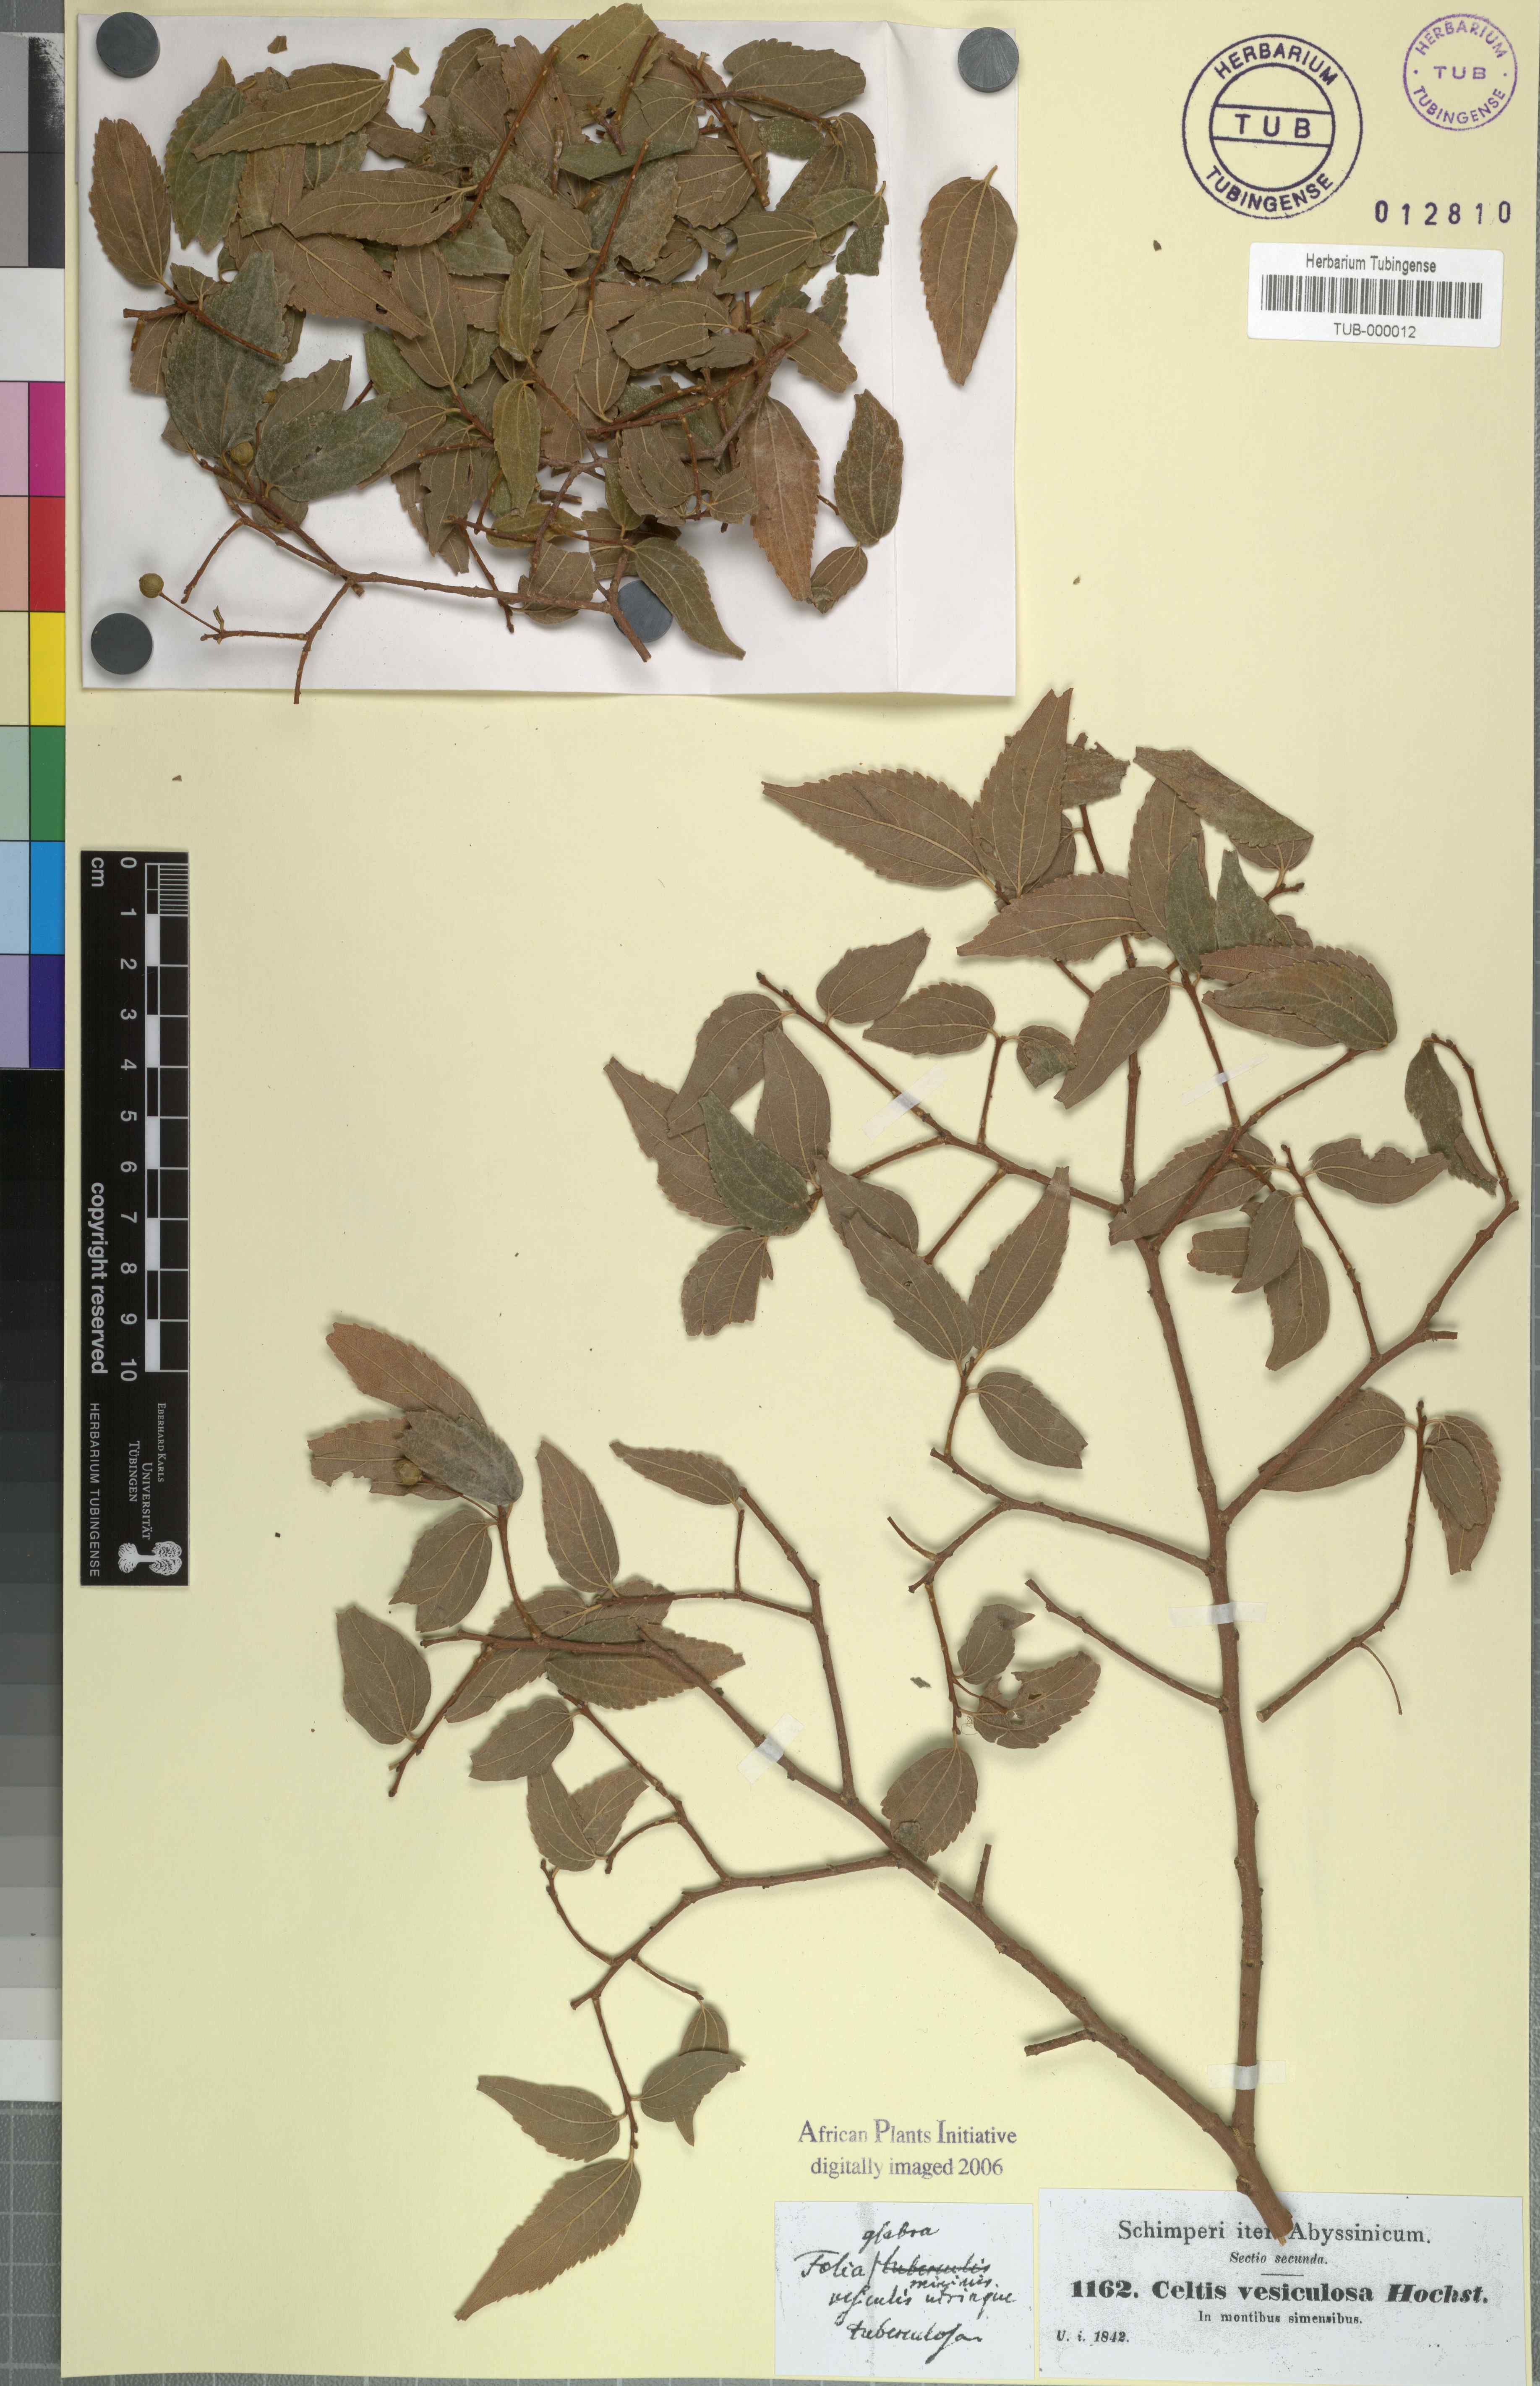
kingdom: Plantae
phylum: Tracheophyta
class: Magnoliopsida
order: Rosales
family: Cannabaceae
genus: Celtis
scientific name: Celtis africana
